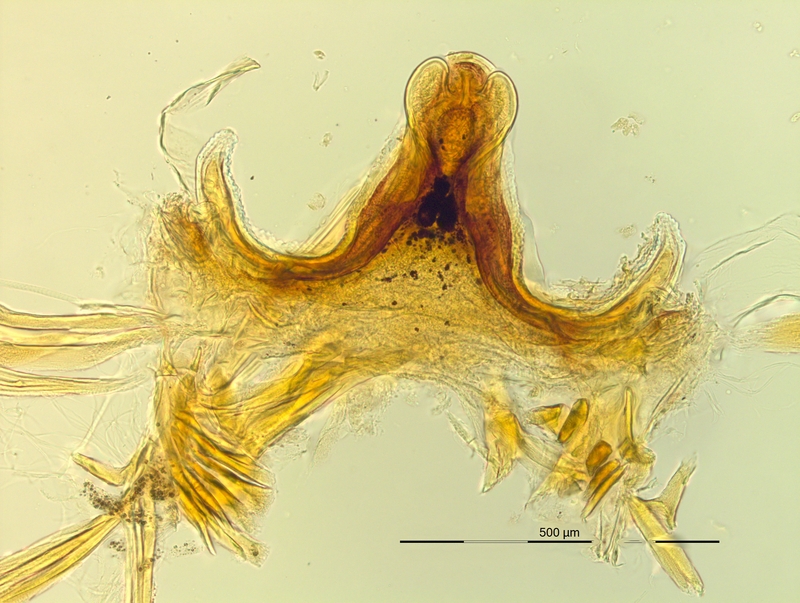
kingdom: Animalia
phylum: Arthropoda
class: Diplopoda
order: Chordeumatida
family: Craspedosomatidae
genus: Pyrgocyphosoma
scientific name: Pyrgocyphosoma aspidiorum
